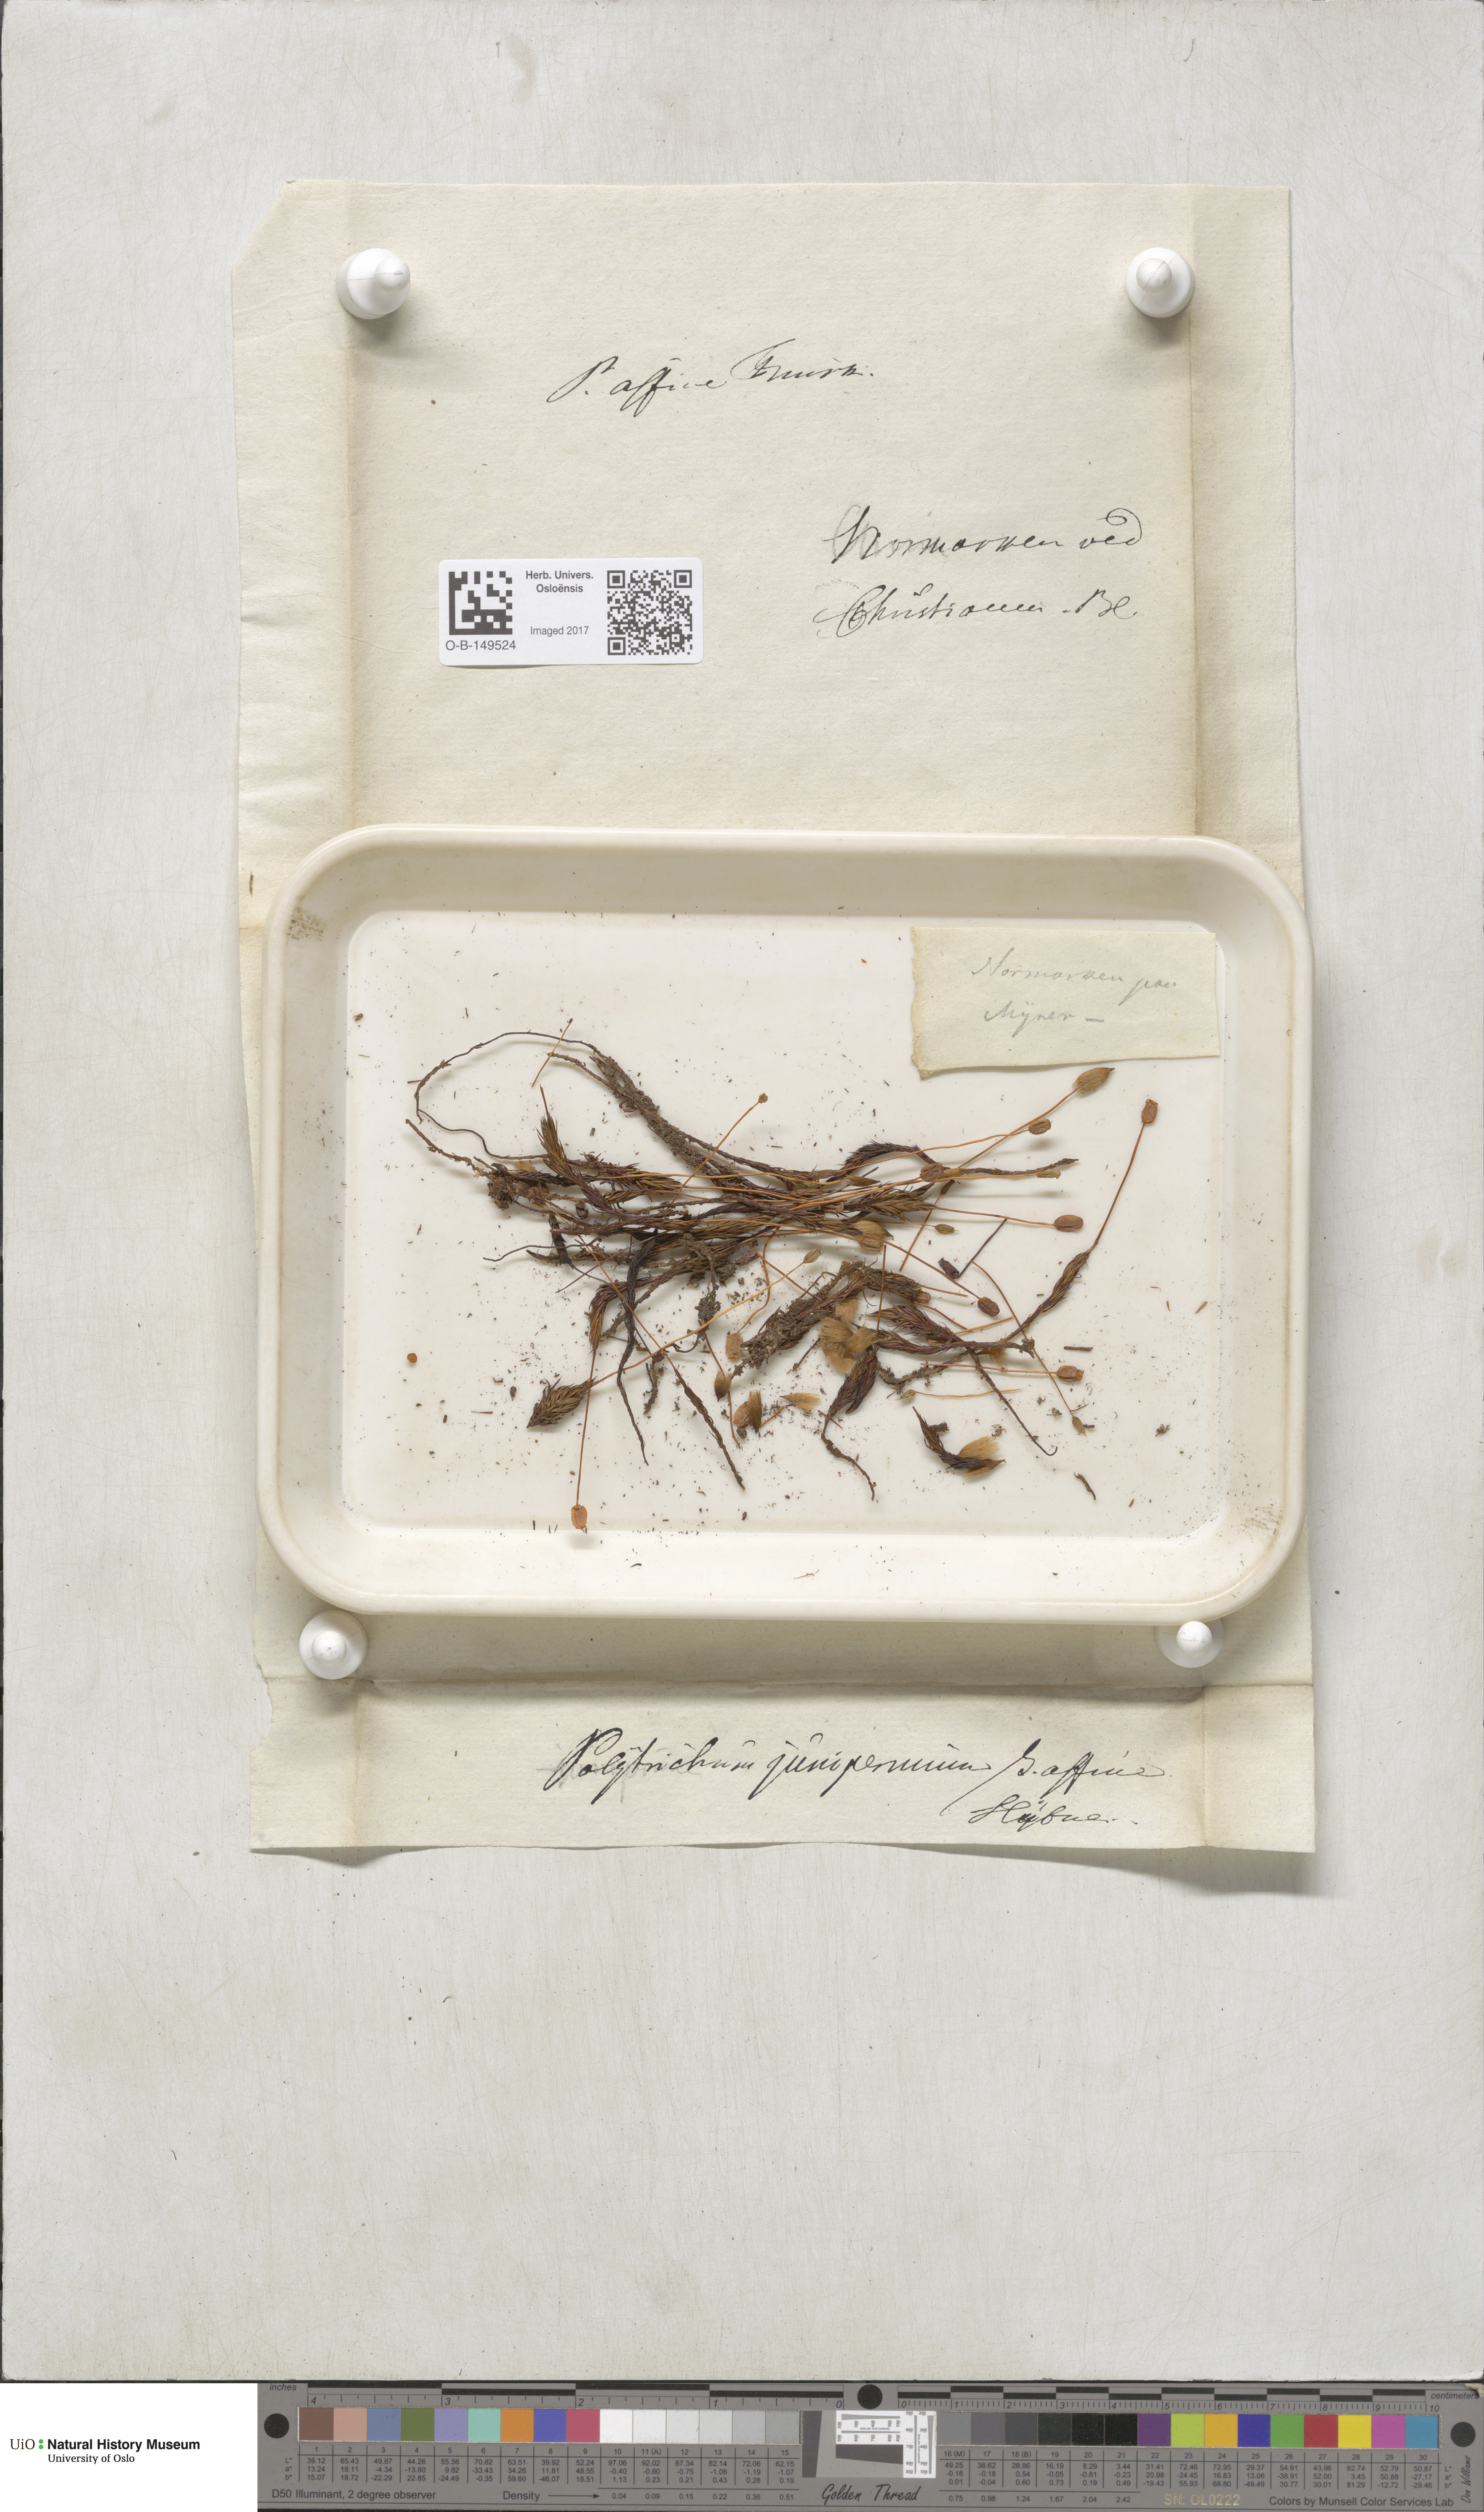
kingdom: Plantae
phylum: Bryophyta
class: Polytrichopsida
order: Polytrichales
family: Polytrichaceae
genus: Polytrichum
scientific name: Polytrichum juniperinum
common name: Juniper haircap moss
